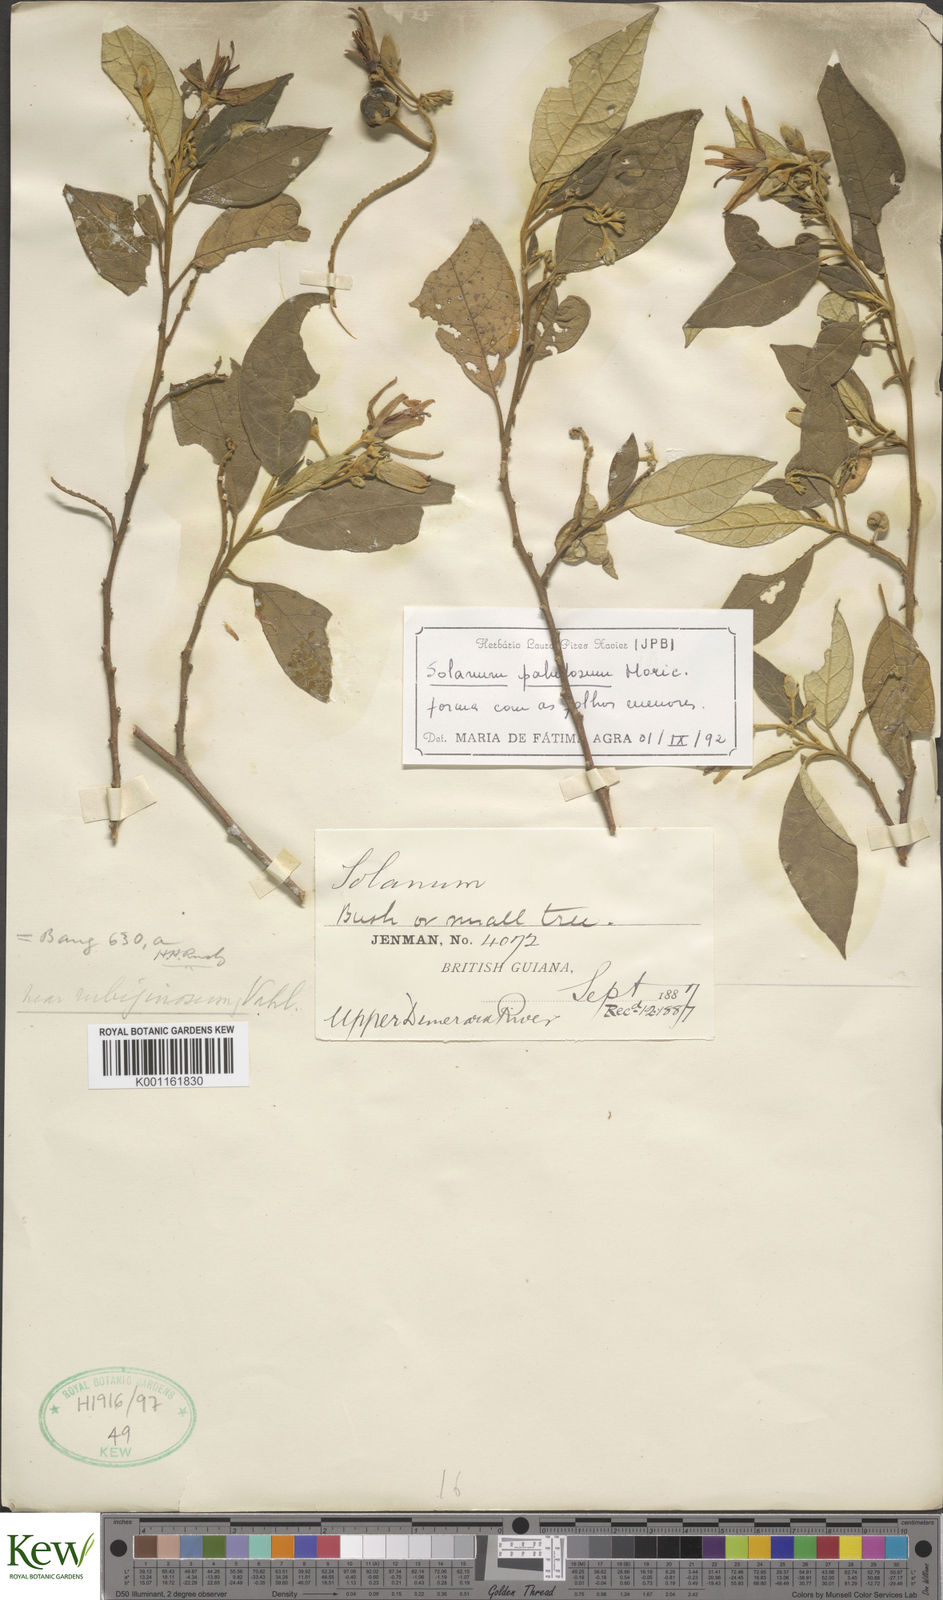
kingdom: Plantae
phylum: Tracheophyta
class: Magnoliopsida
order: Solanales
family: Solanaceae
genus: Solanum
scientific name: Solanum paludosum
